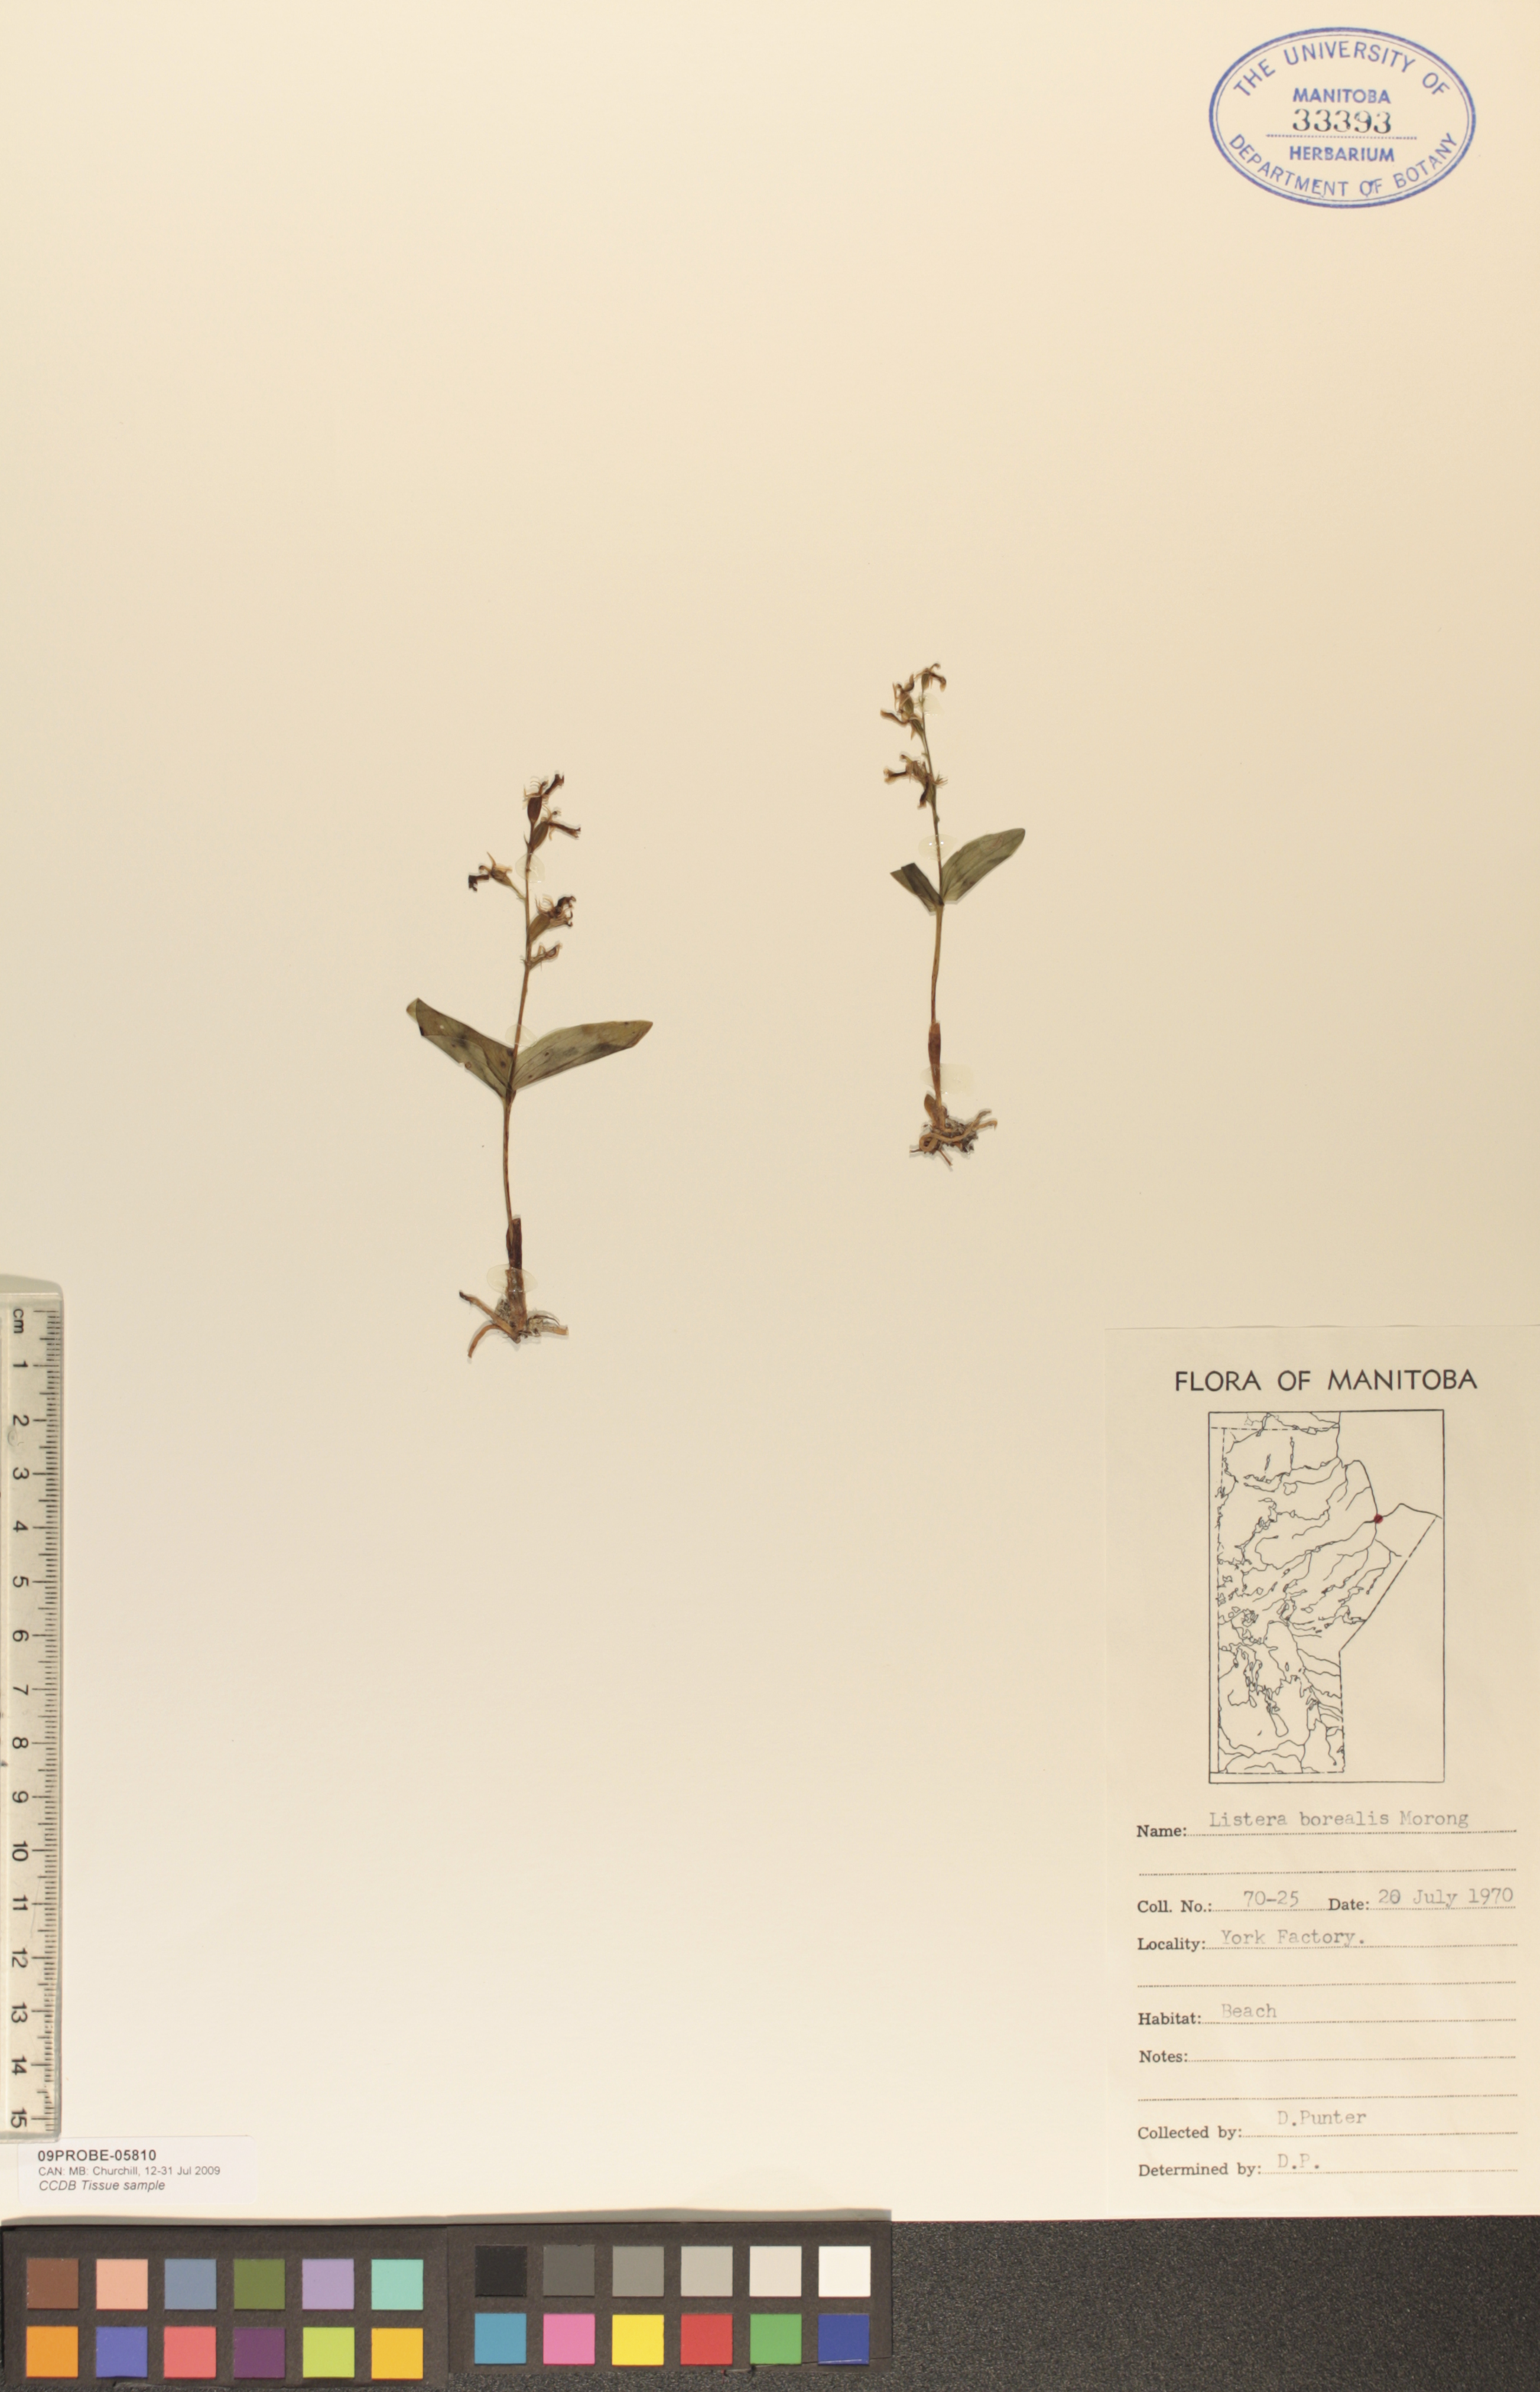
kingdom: Plantae
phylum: Tracheophyta
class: Liliopsida
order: Asparagales
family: Orchidaceae
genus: Neottia
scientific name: Neottia borealis
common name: Northern twayblade
